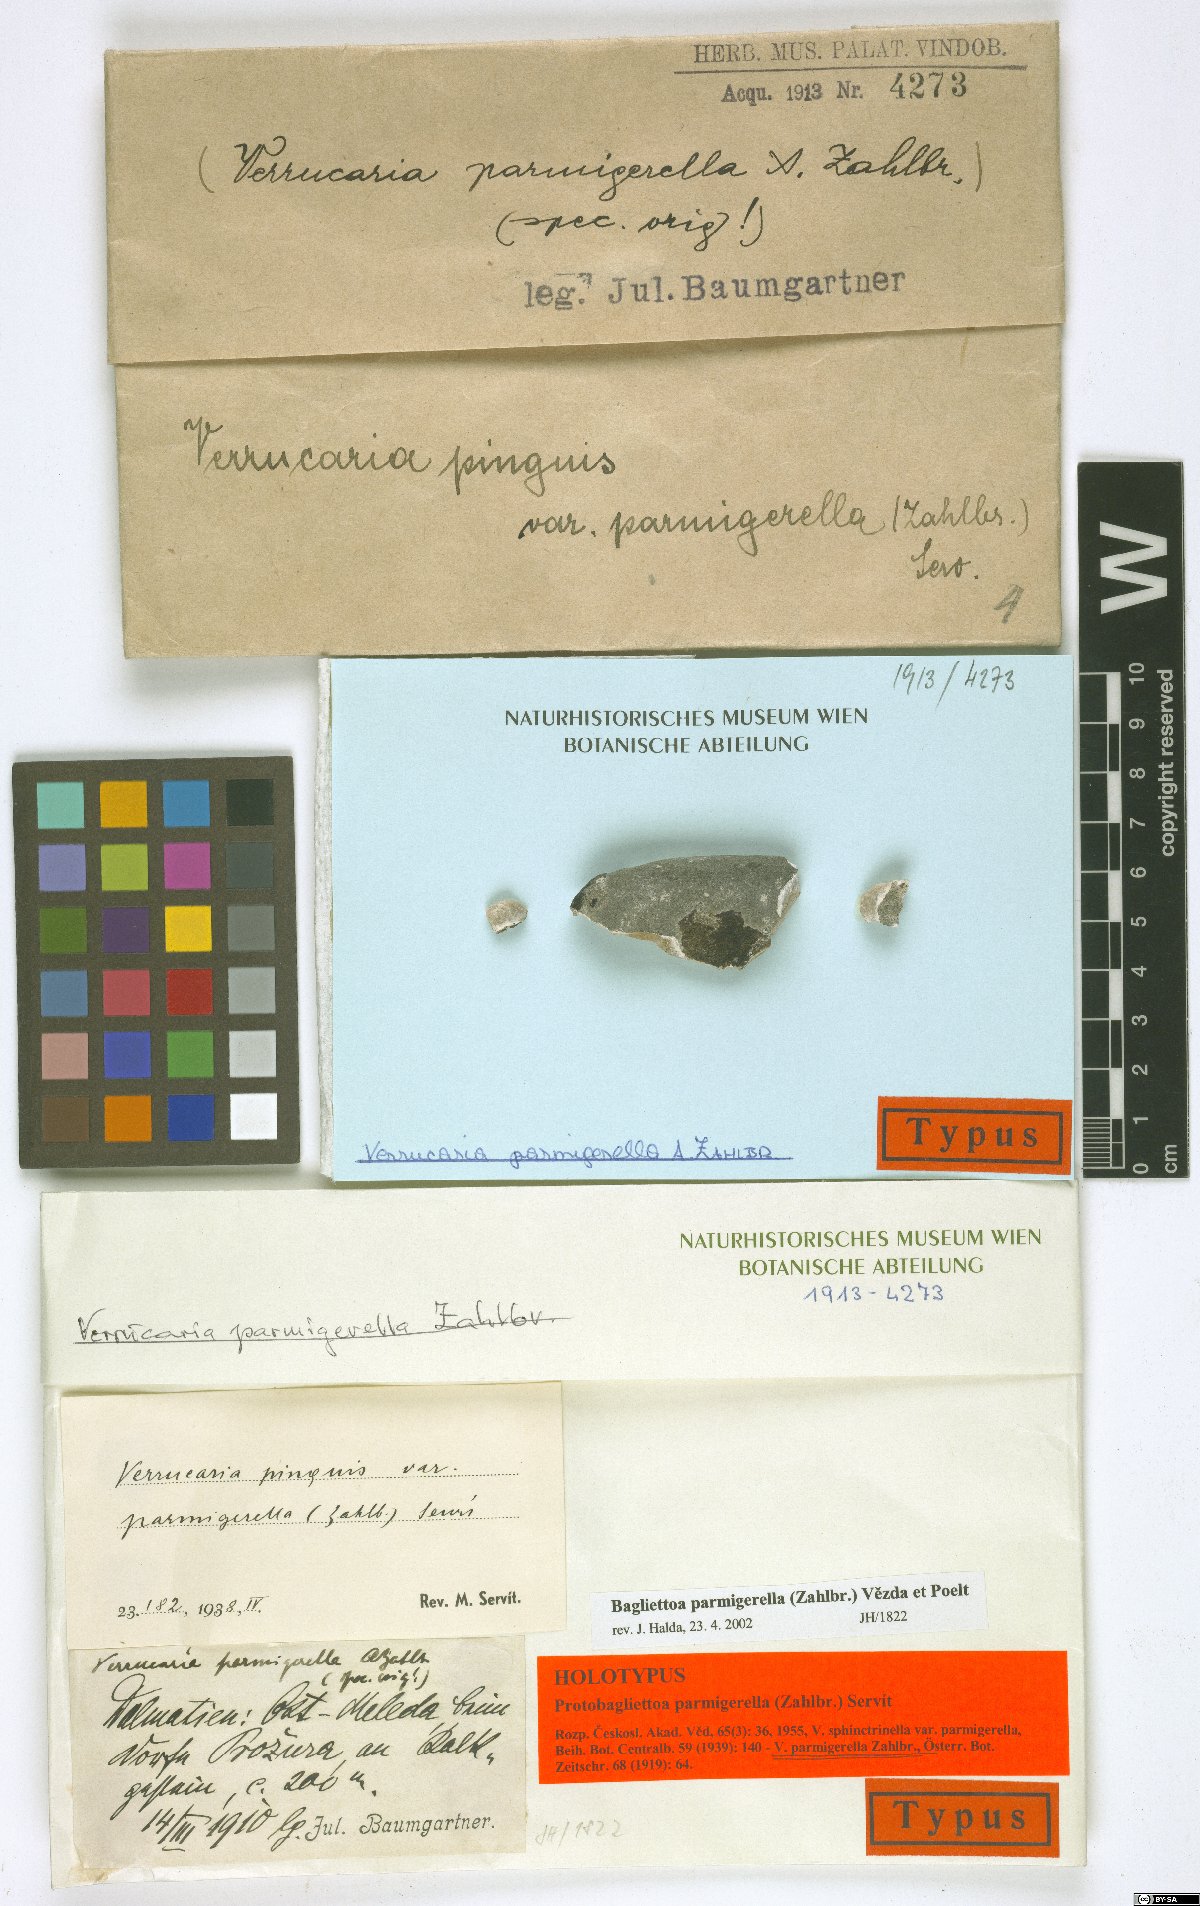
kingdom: Fungi
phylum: Ascomycota
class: Eurotiomycetes
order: Verrucariales
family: Verrucariaceae
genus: Bagliettoa
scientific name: Bagliettoa parmigerella
